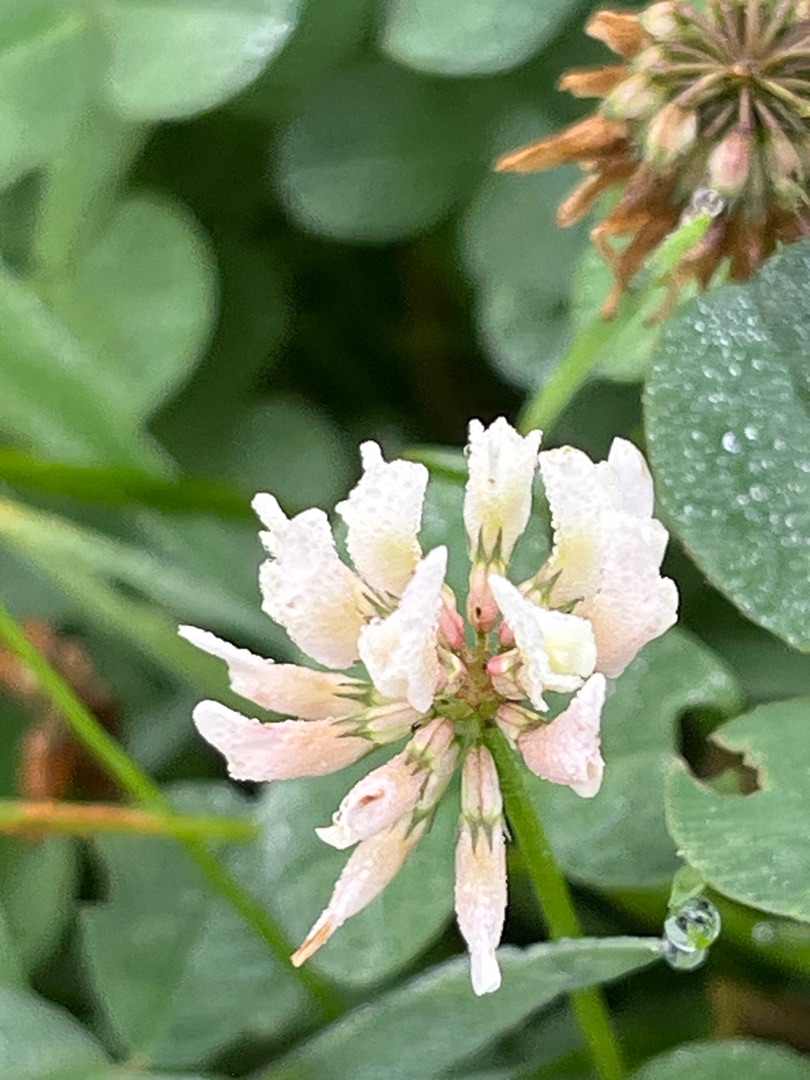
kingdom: Plantae
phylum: Tracheophyta
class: Magnoliopsida
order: Fabales
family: Fabaceae
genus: Trifolium
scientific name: Trifolium repens
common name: Hvid-kløver
